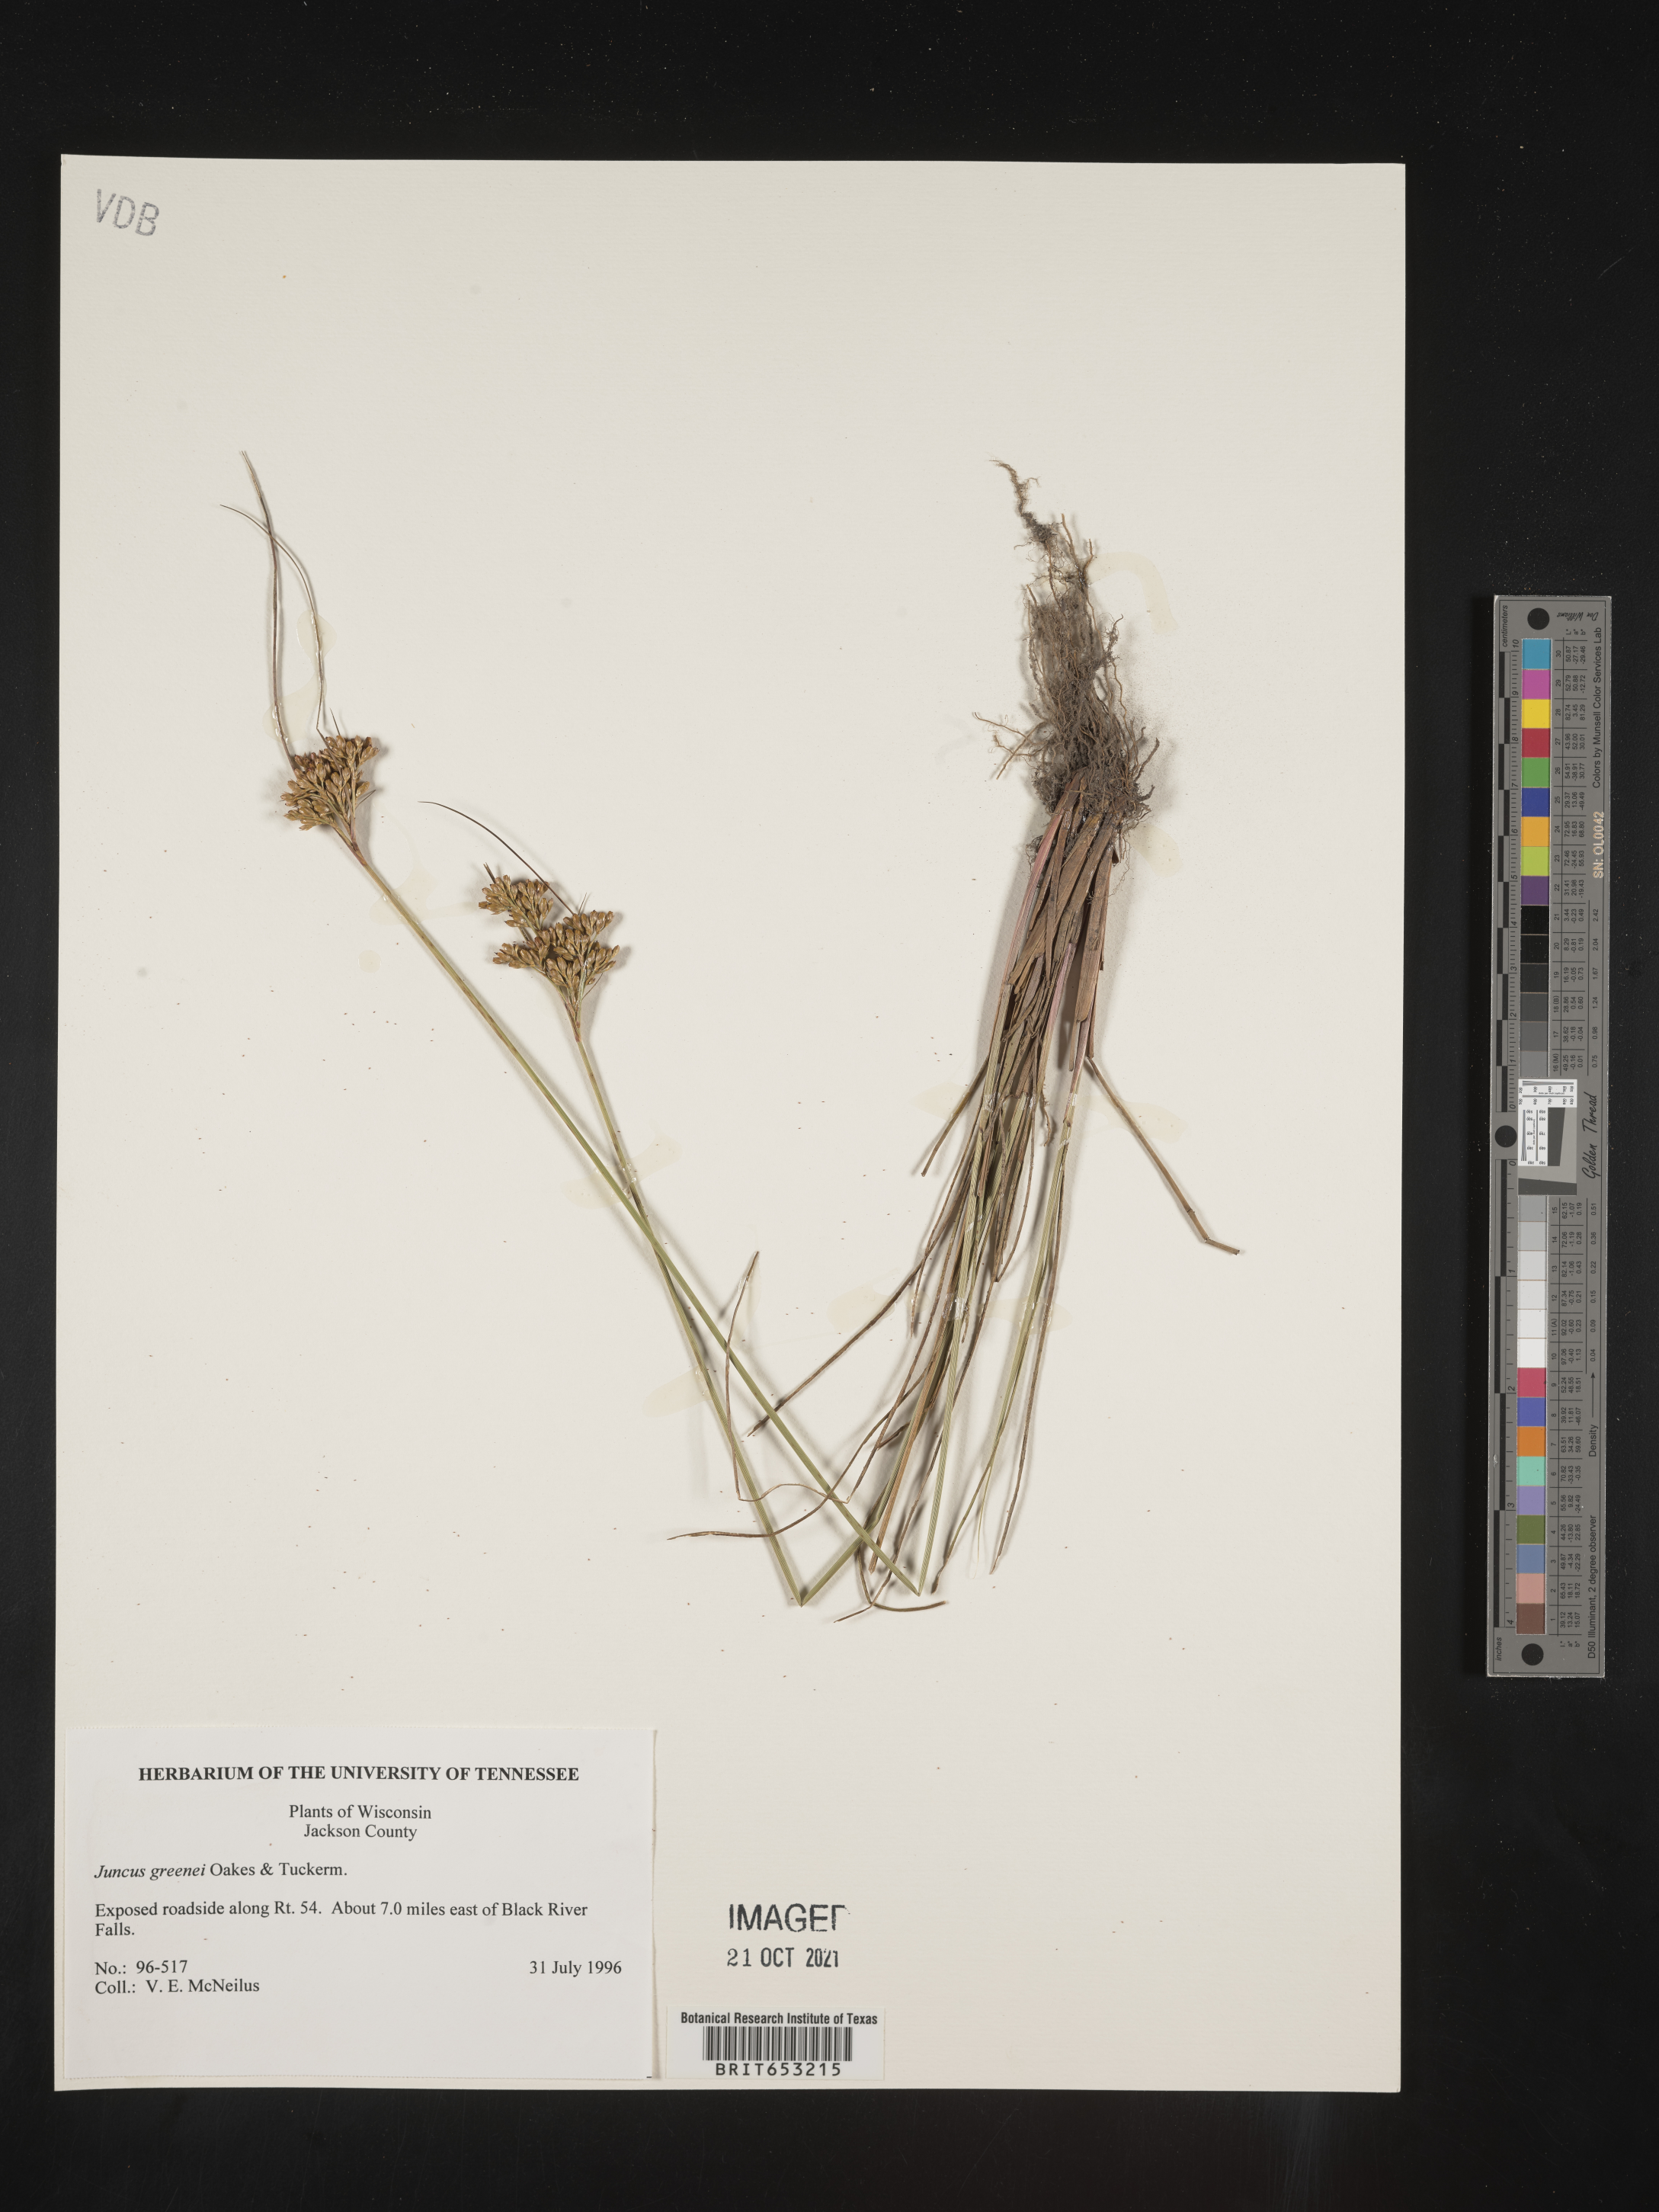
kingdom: Plantae
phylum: Tracheophyta
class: Liliopsida
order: Poales
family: Juncaceae
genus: Juncus
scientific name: Juncus greenei
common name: Greene's rush
